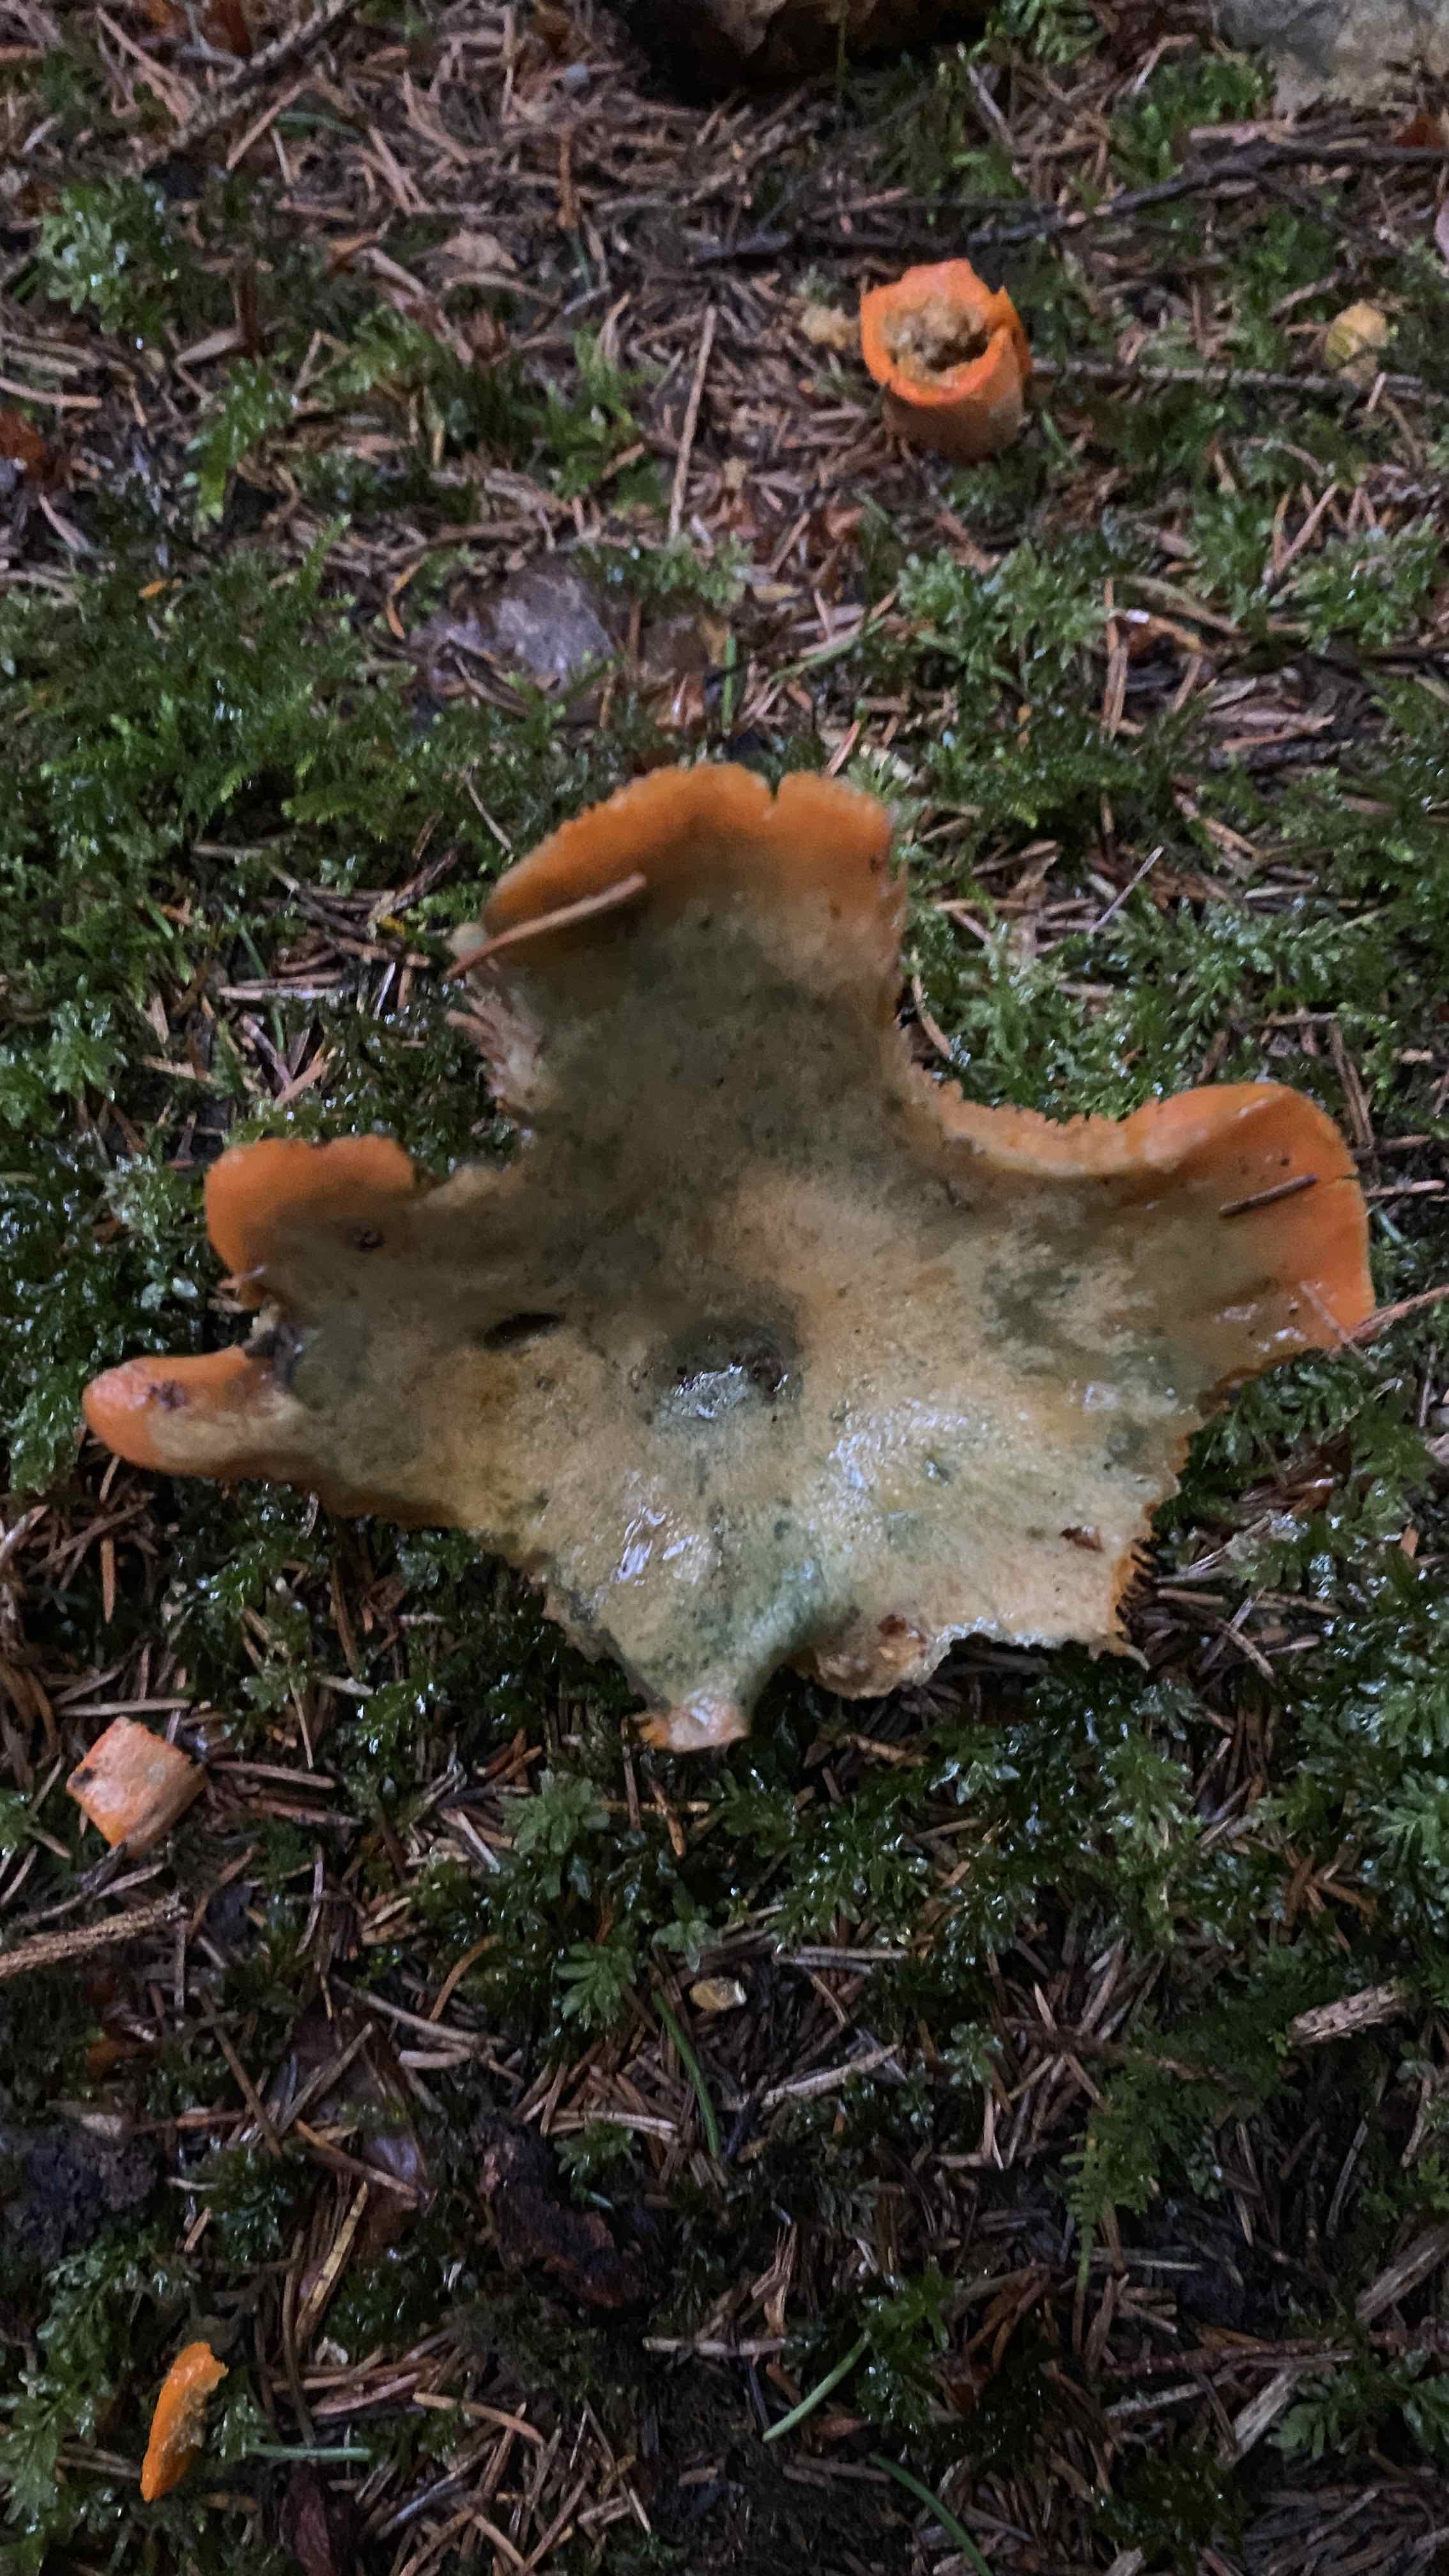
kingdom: Fungi
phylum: Basidiomycota
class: Agaricomycetes
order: Russulales
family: Russulaceae
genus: Lactarius
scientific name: Lactarius deterrimus
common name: gran-mælkehat
